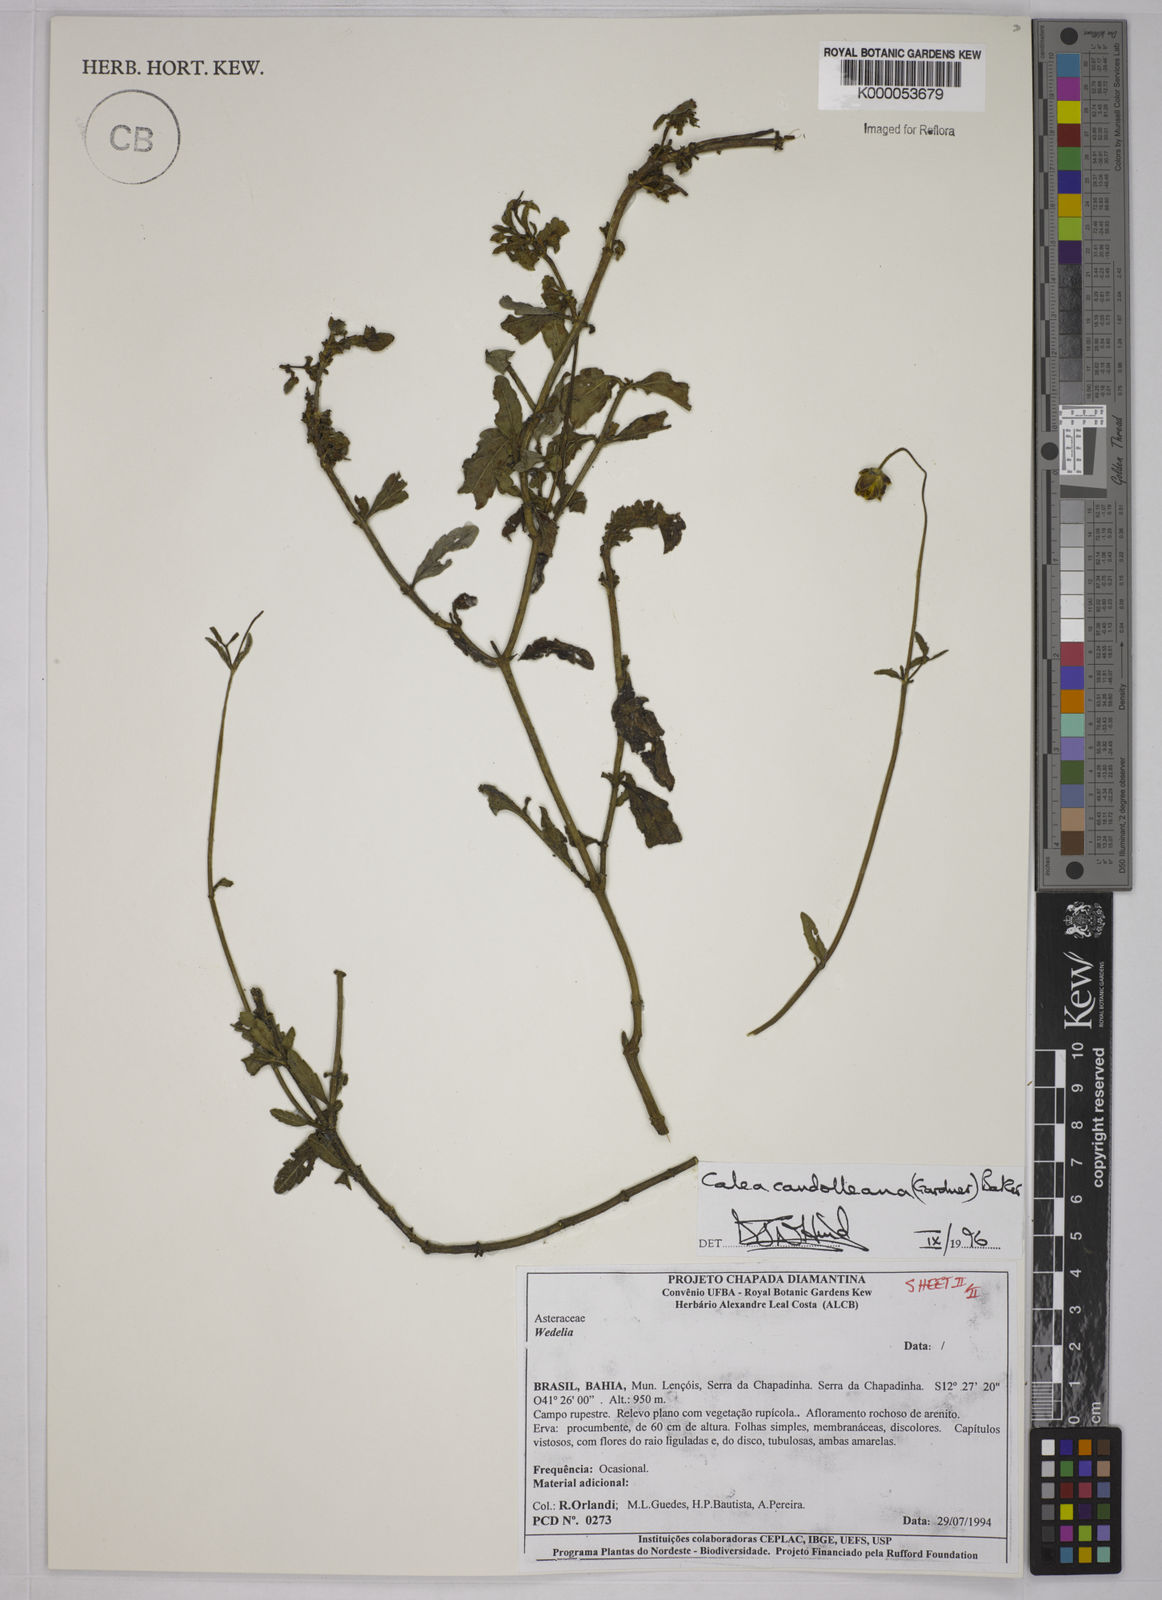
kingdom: Plantae
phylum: Tracheophyta
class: Magnoliopsida
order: Asterales
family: Asteraceae
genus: Calea
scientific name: Calea candolleana
